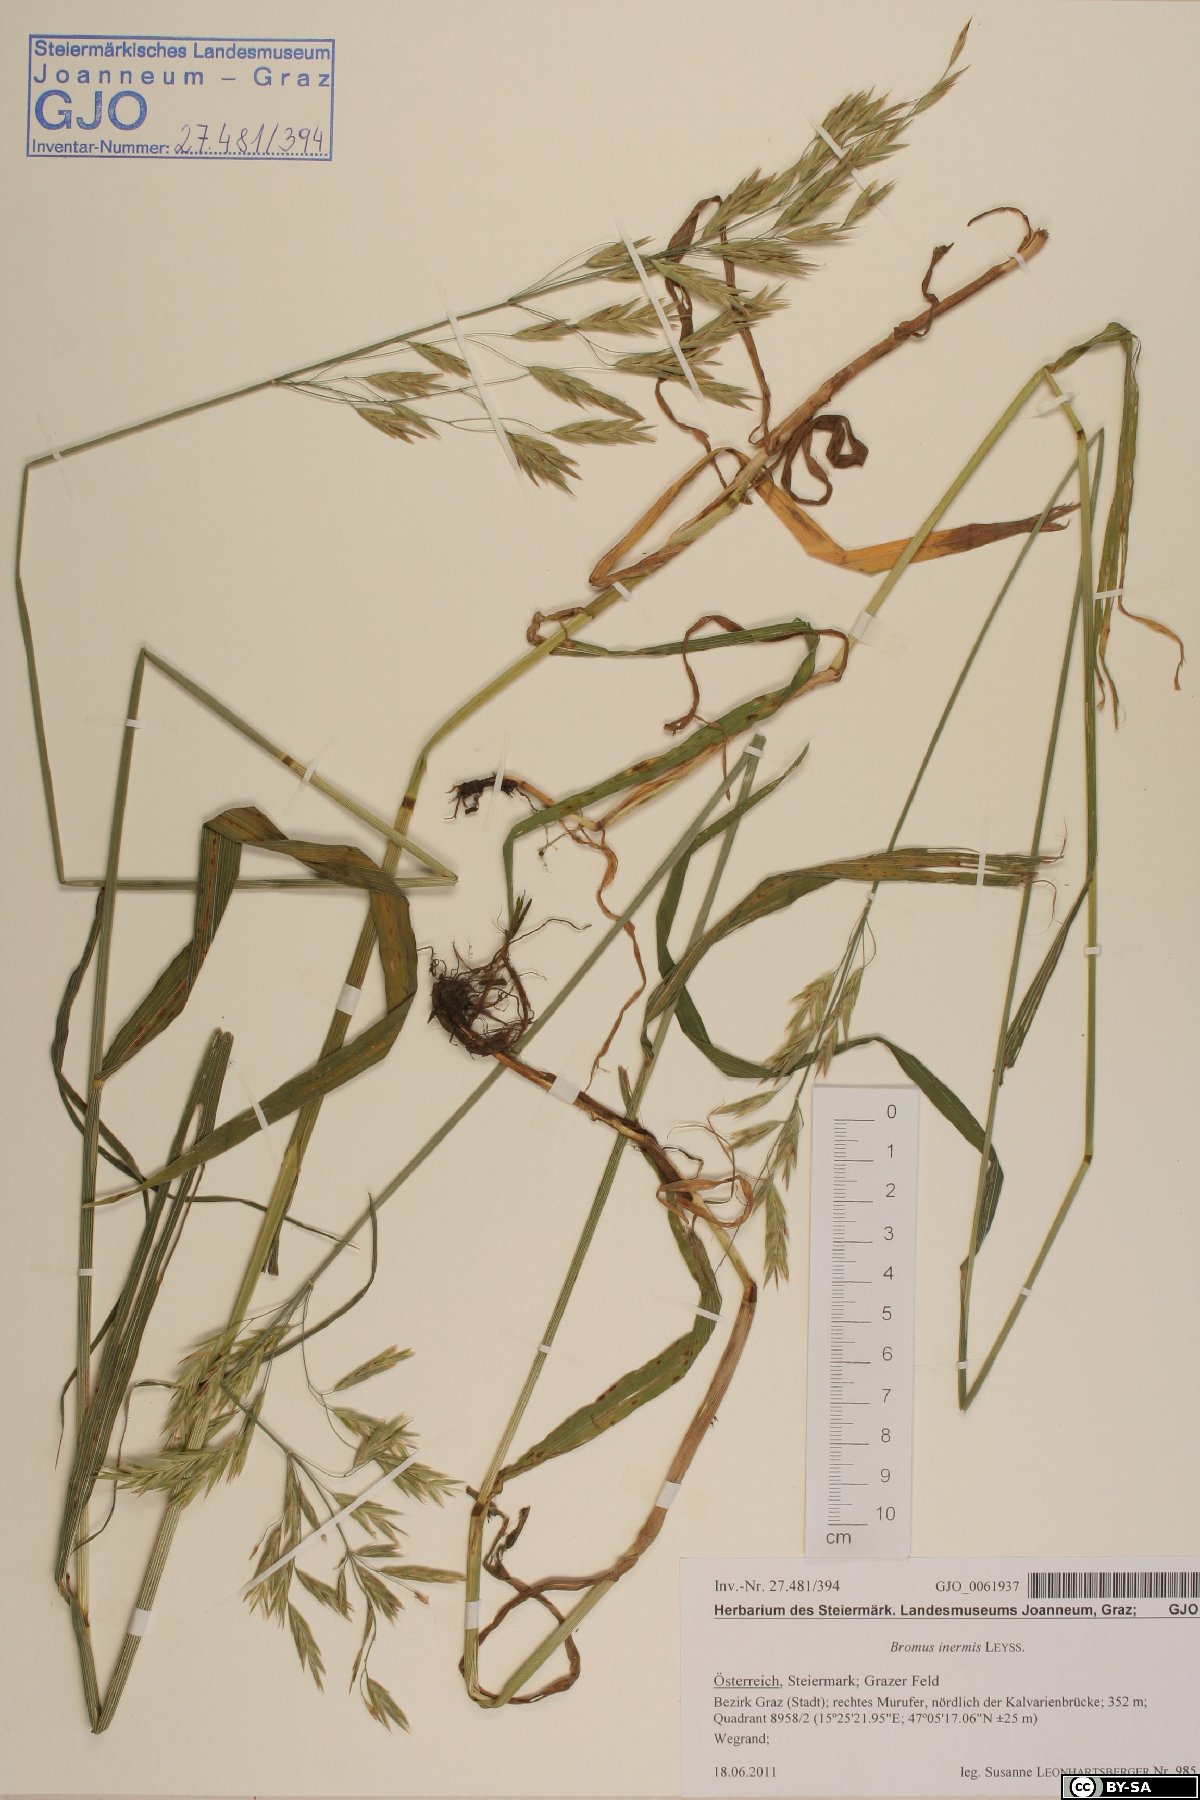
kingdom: Plantae
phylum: Tracheophyta
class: Liliopsida
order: Poales
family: Poaceae
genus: Bromus
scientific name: Bromus inermis
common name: Smooth brome
